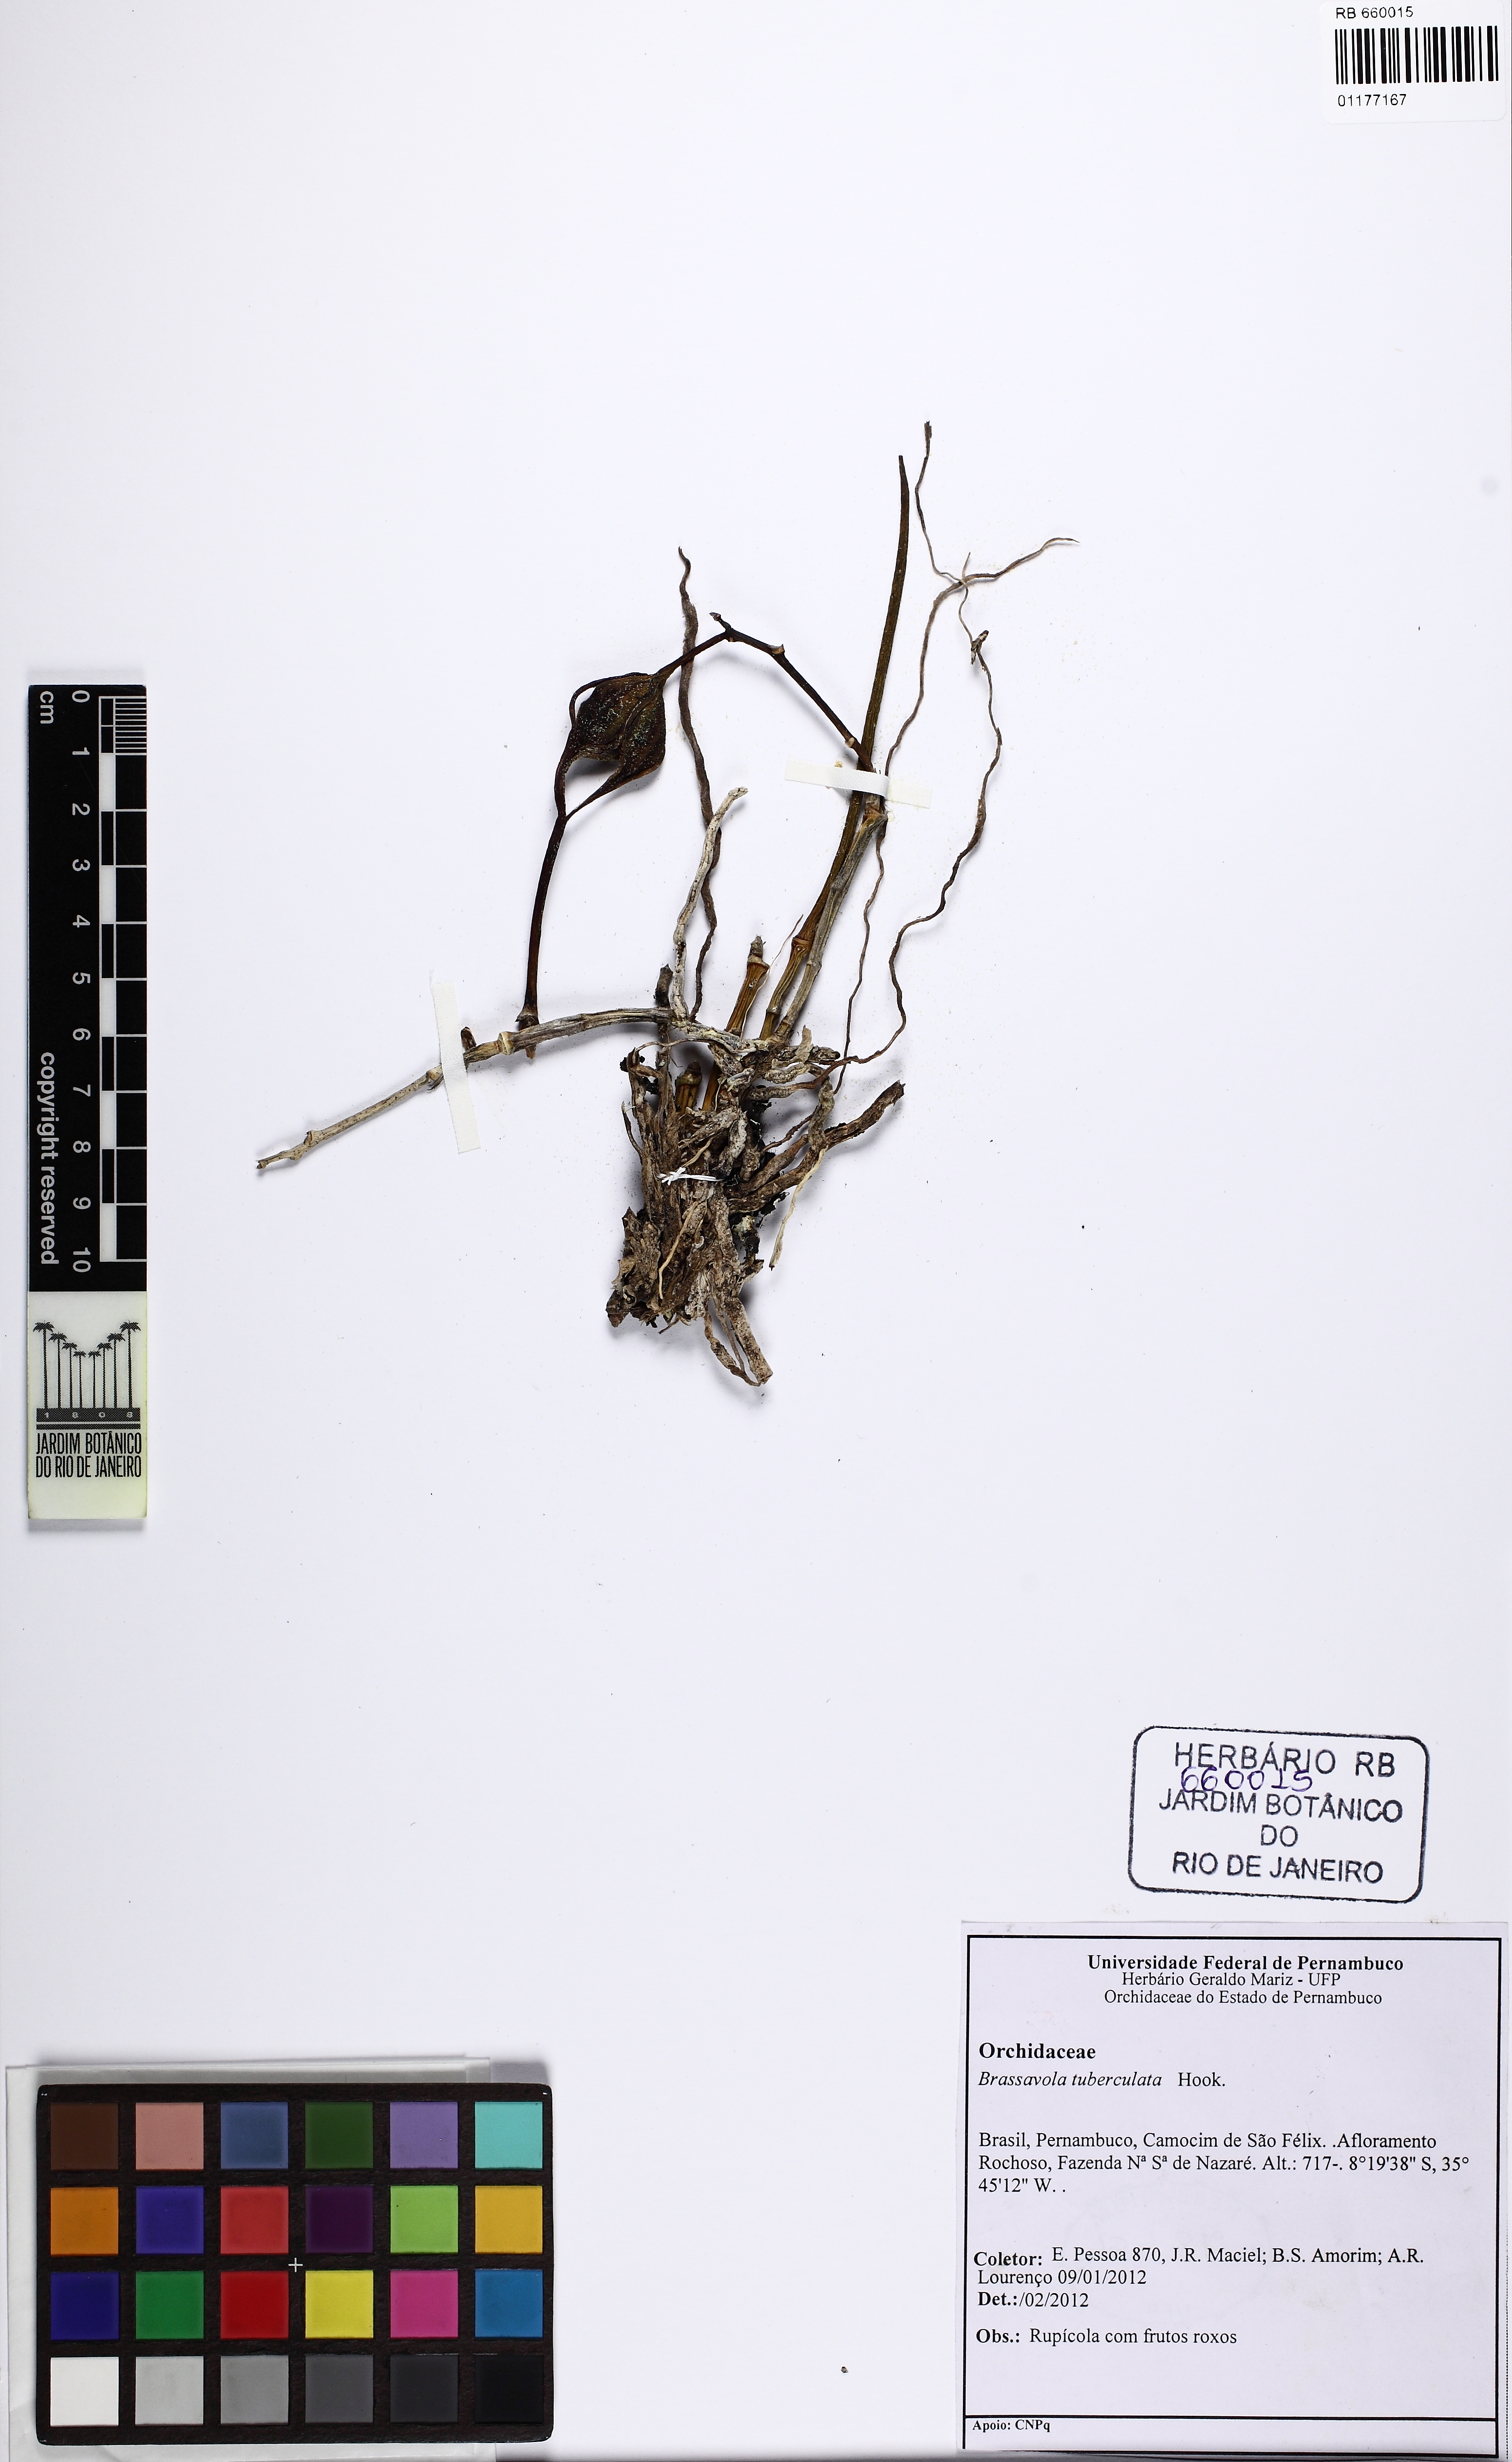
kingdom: Plantae
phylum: Tracheophyta
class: Liliopsida
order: Asparagales
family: Orchidaceae
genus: Brassavola
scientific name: Brassavola tuberculata
